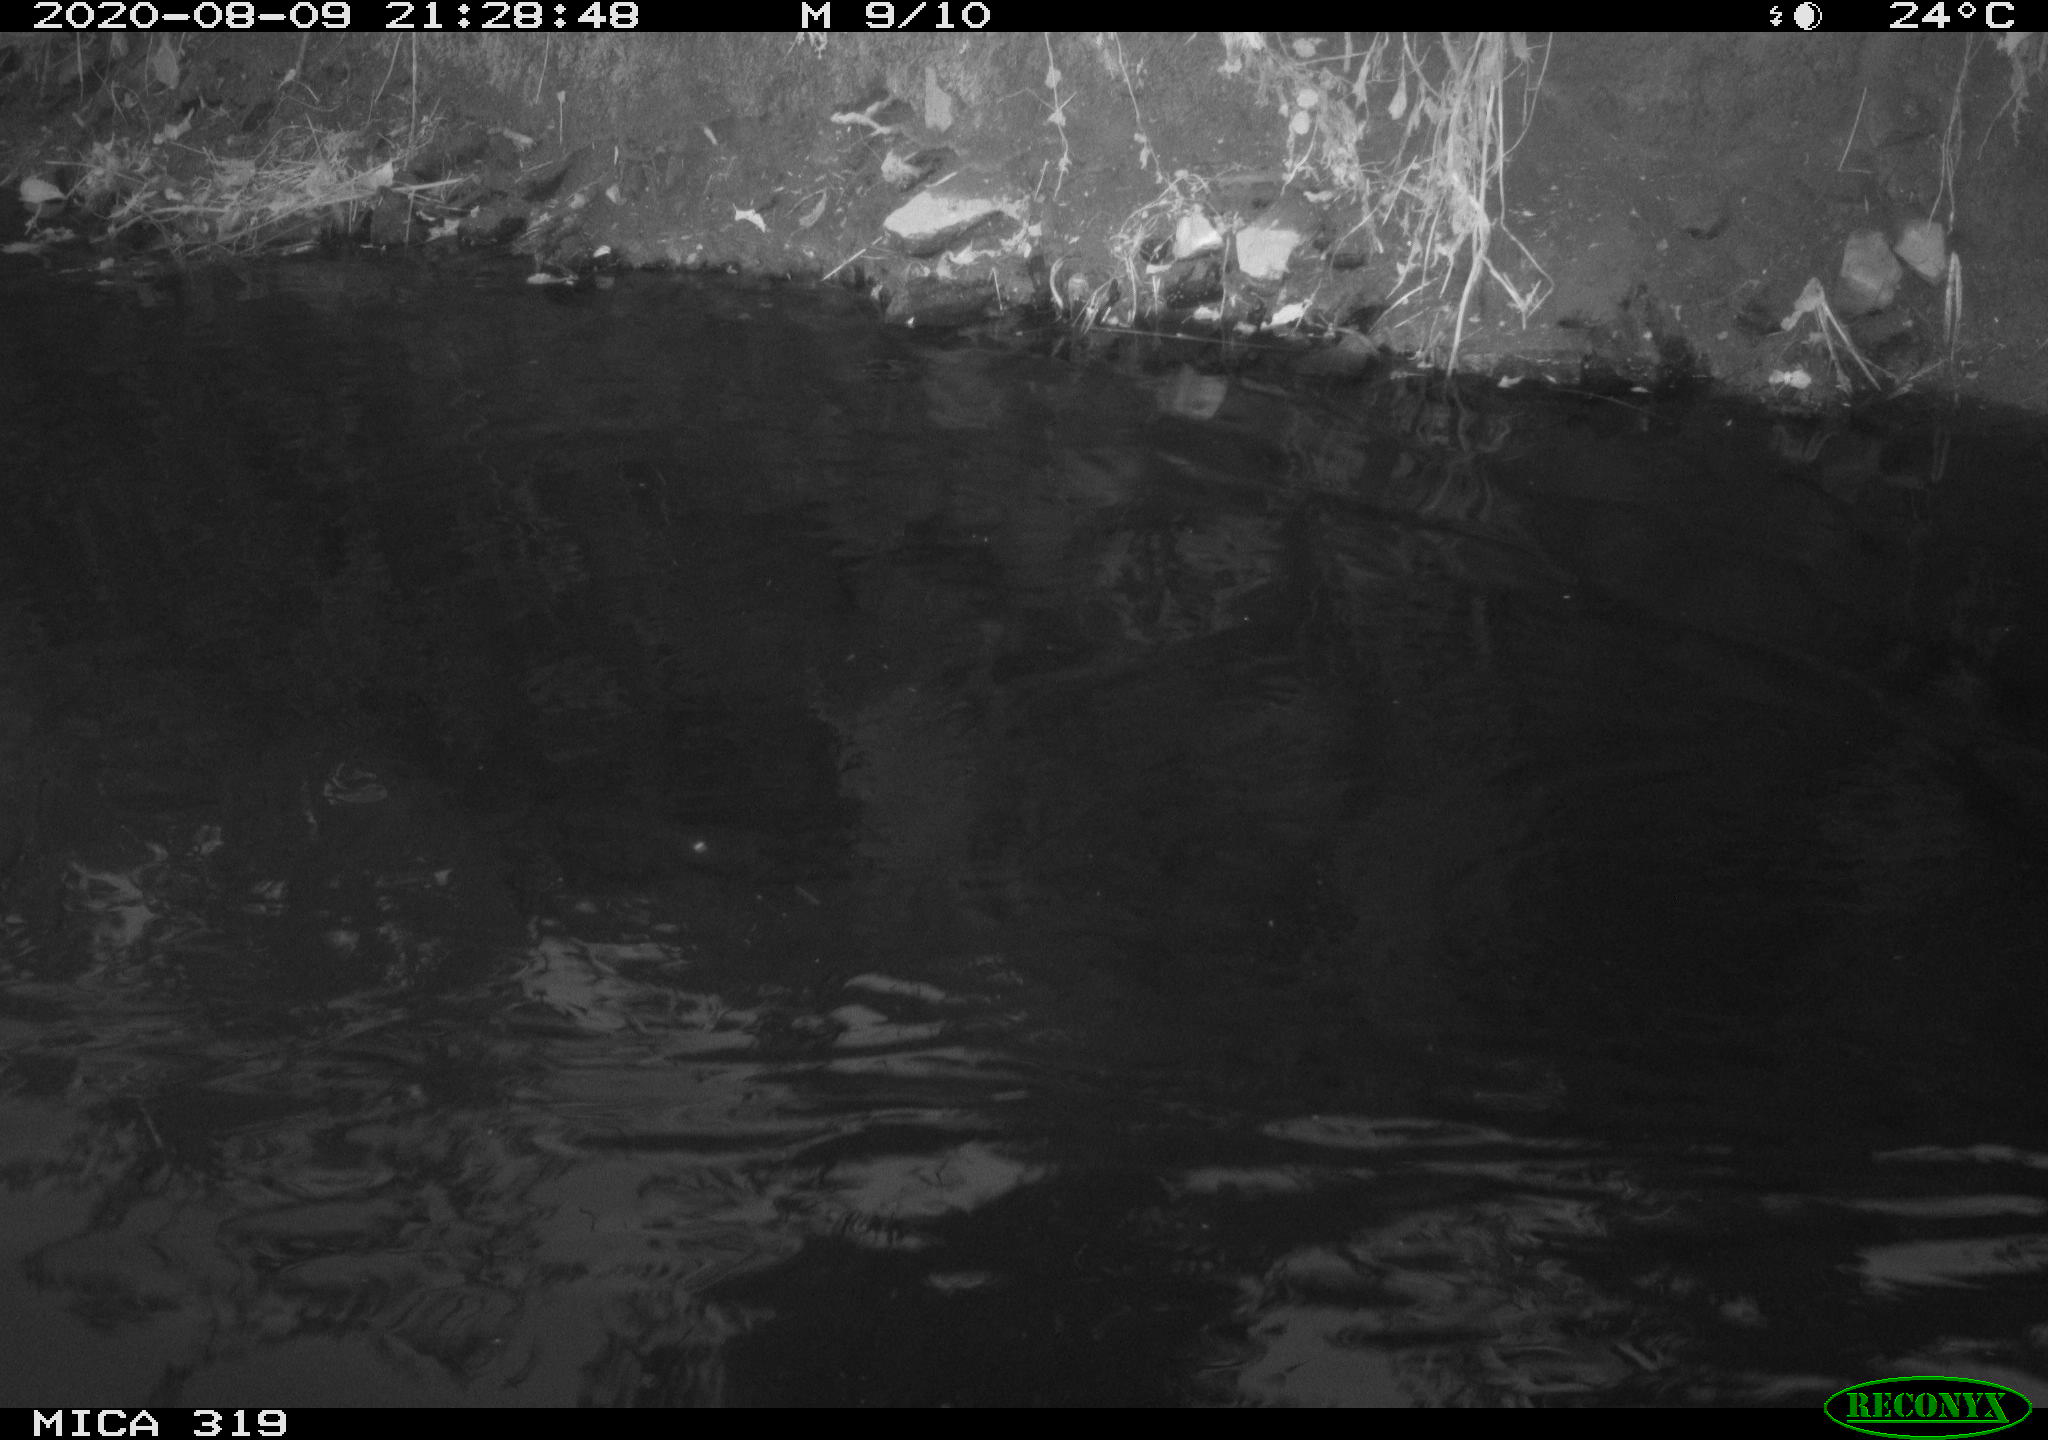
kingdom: Animalia
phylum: Chordata
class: Aves
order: Anseriformes
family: Anatidae
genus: Anas
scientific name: Anas platyrhynchos
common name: Mallard
